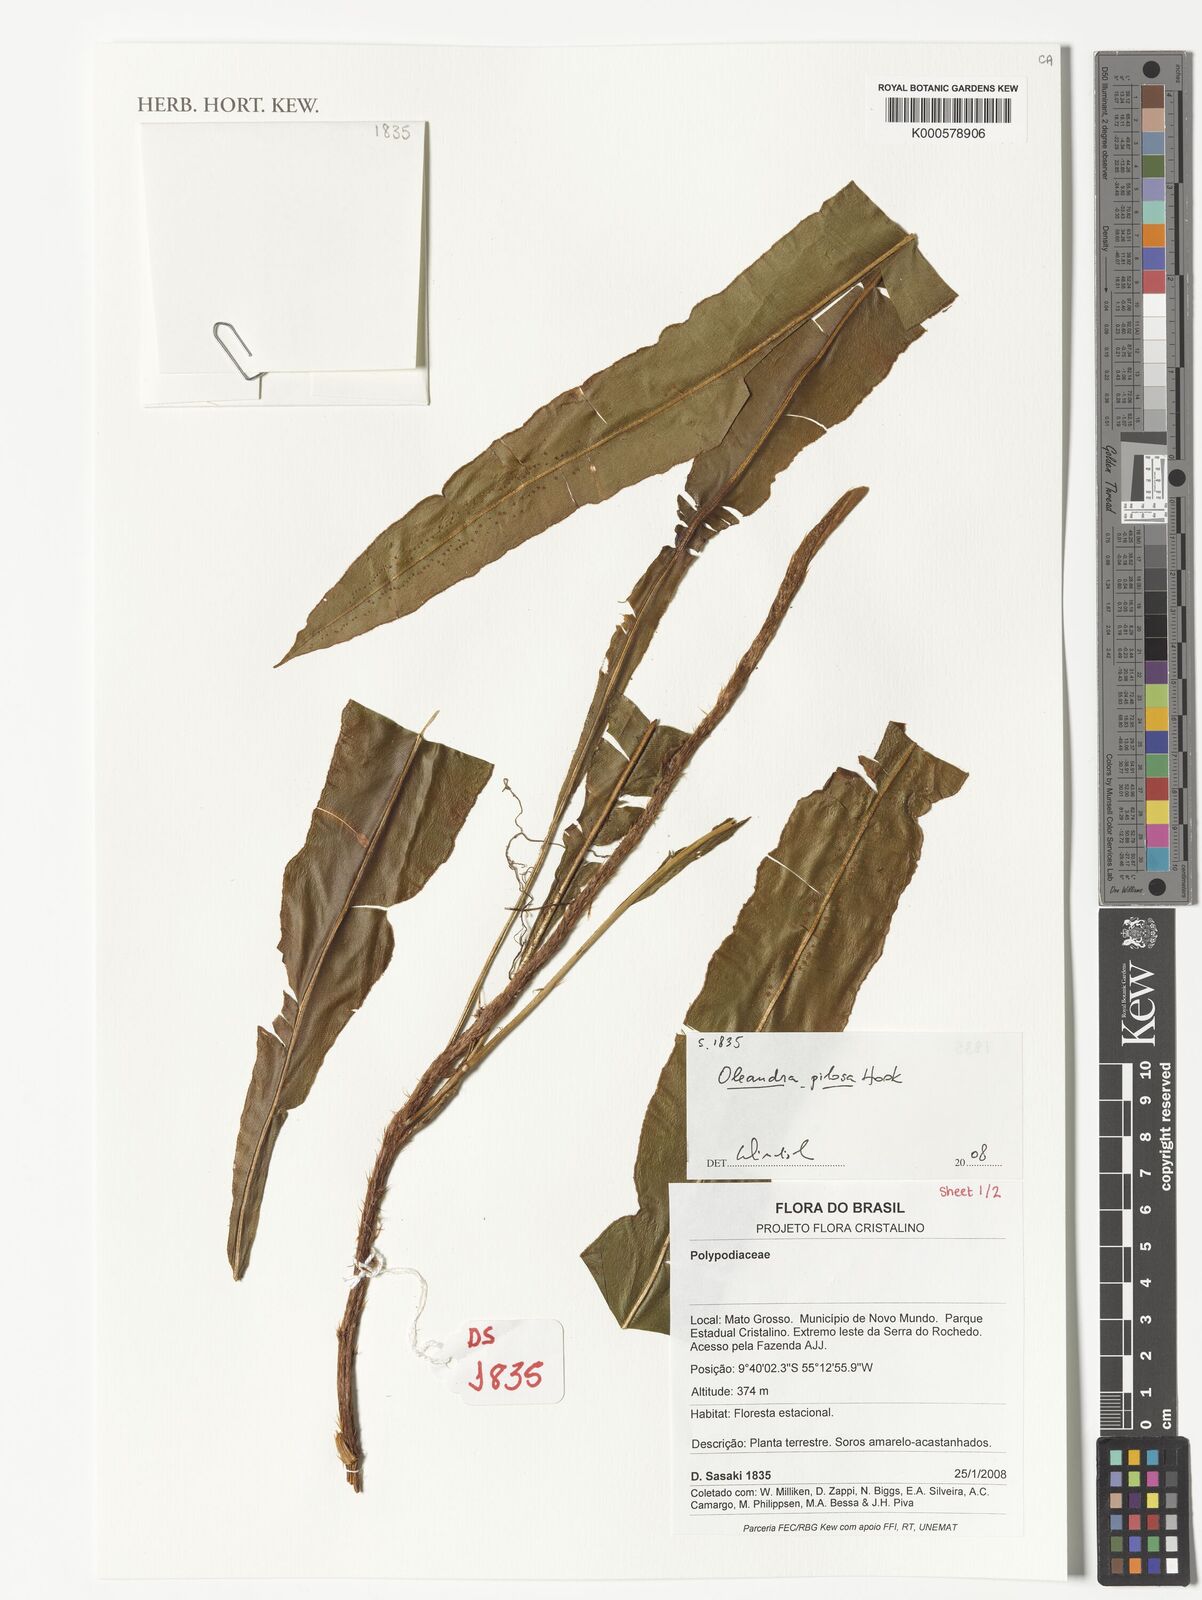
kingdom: Plantae
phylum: Tracheophyta
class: Polypodiopsida
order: Polypodiales
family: Oleandraceae
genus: Oleandra
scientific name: Oleandra pilosa
